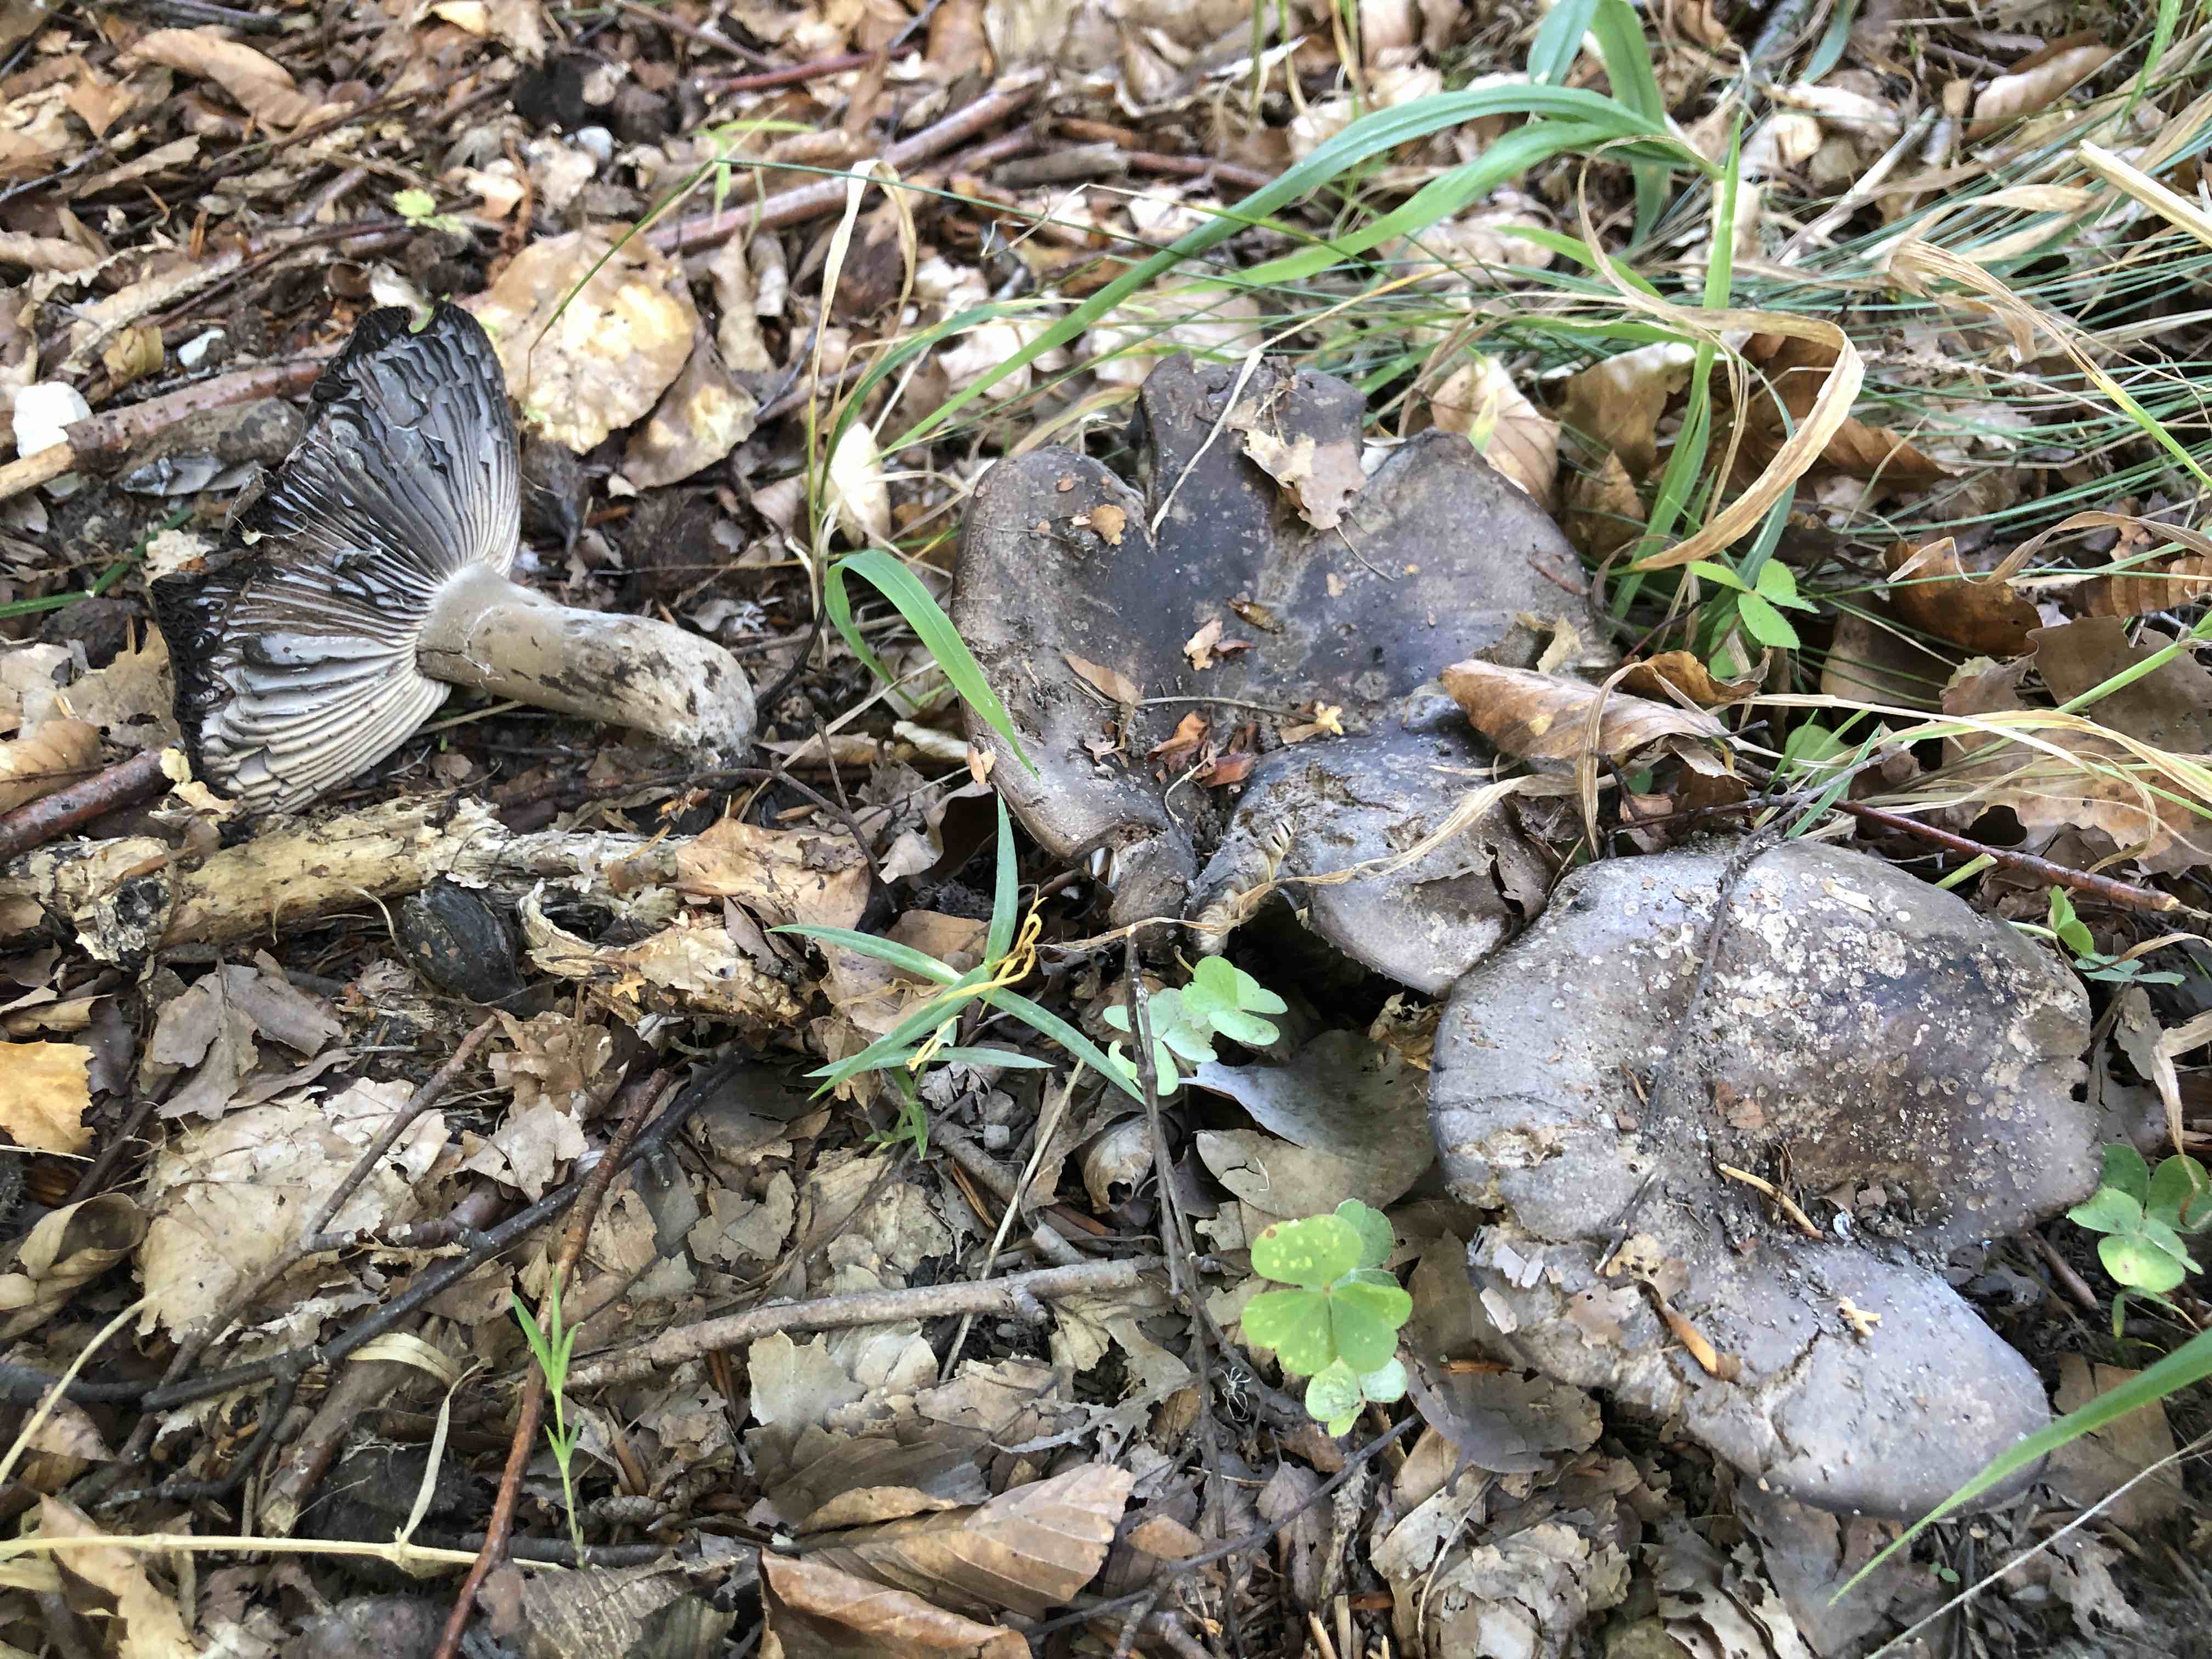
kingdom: Fungi
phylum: Basidiomycota
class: Agaricomycetes
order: Russulales
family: Russulaceae
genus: Russula
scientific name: Russula adusta
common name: sværtende skørhat
